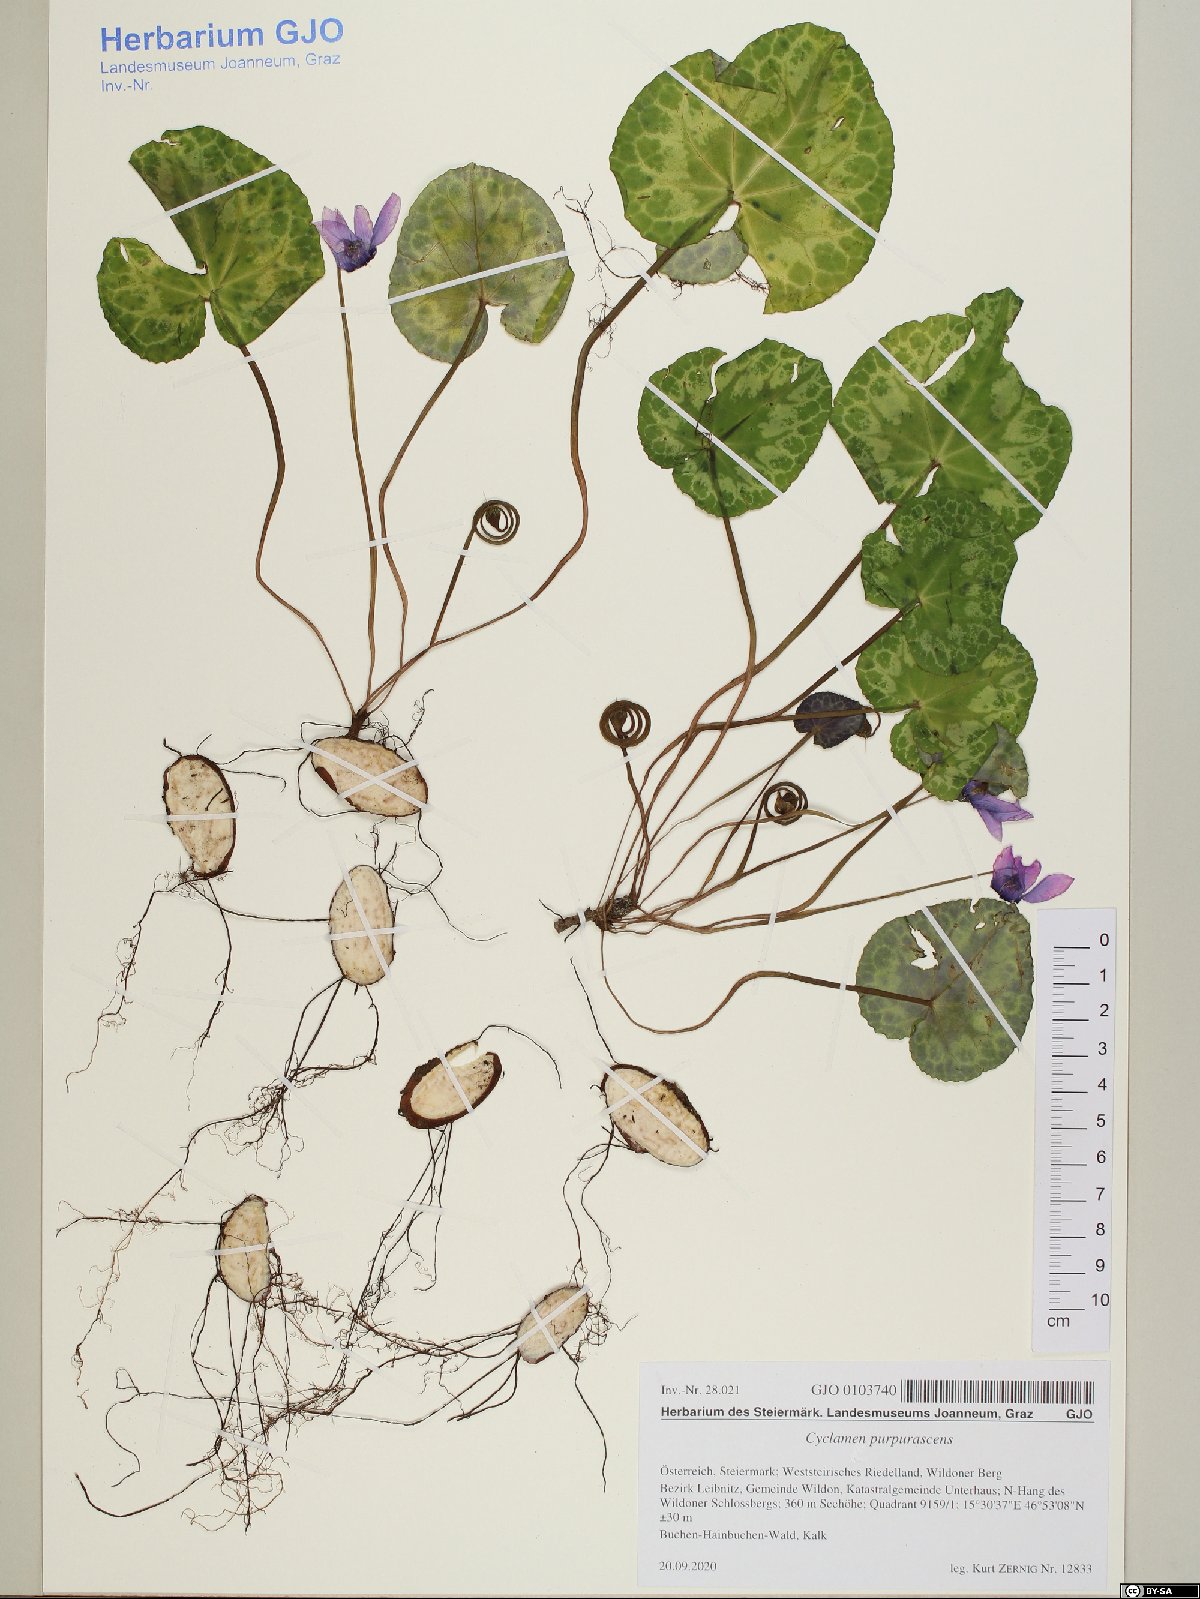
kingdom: Plantae
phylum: Tracheophyta
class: Magnoliopsida
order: Ericales
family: Primulaceae
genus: Cyclamen
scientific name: Cyclamen purpurascens
